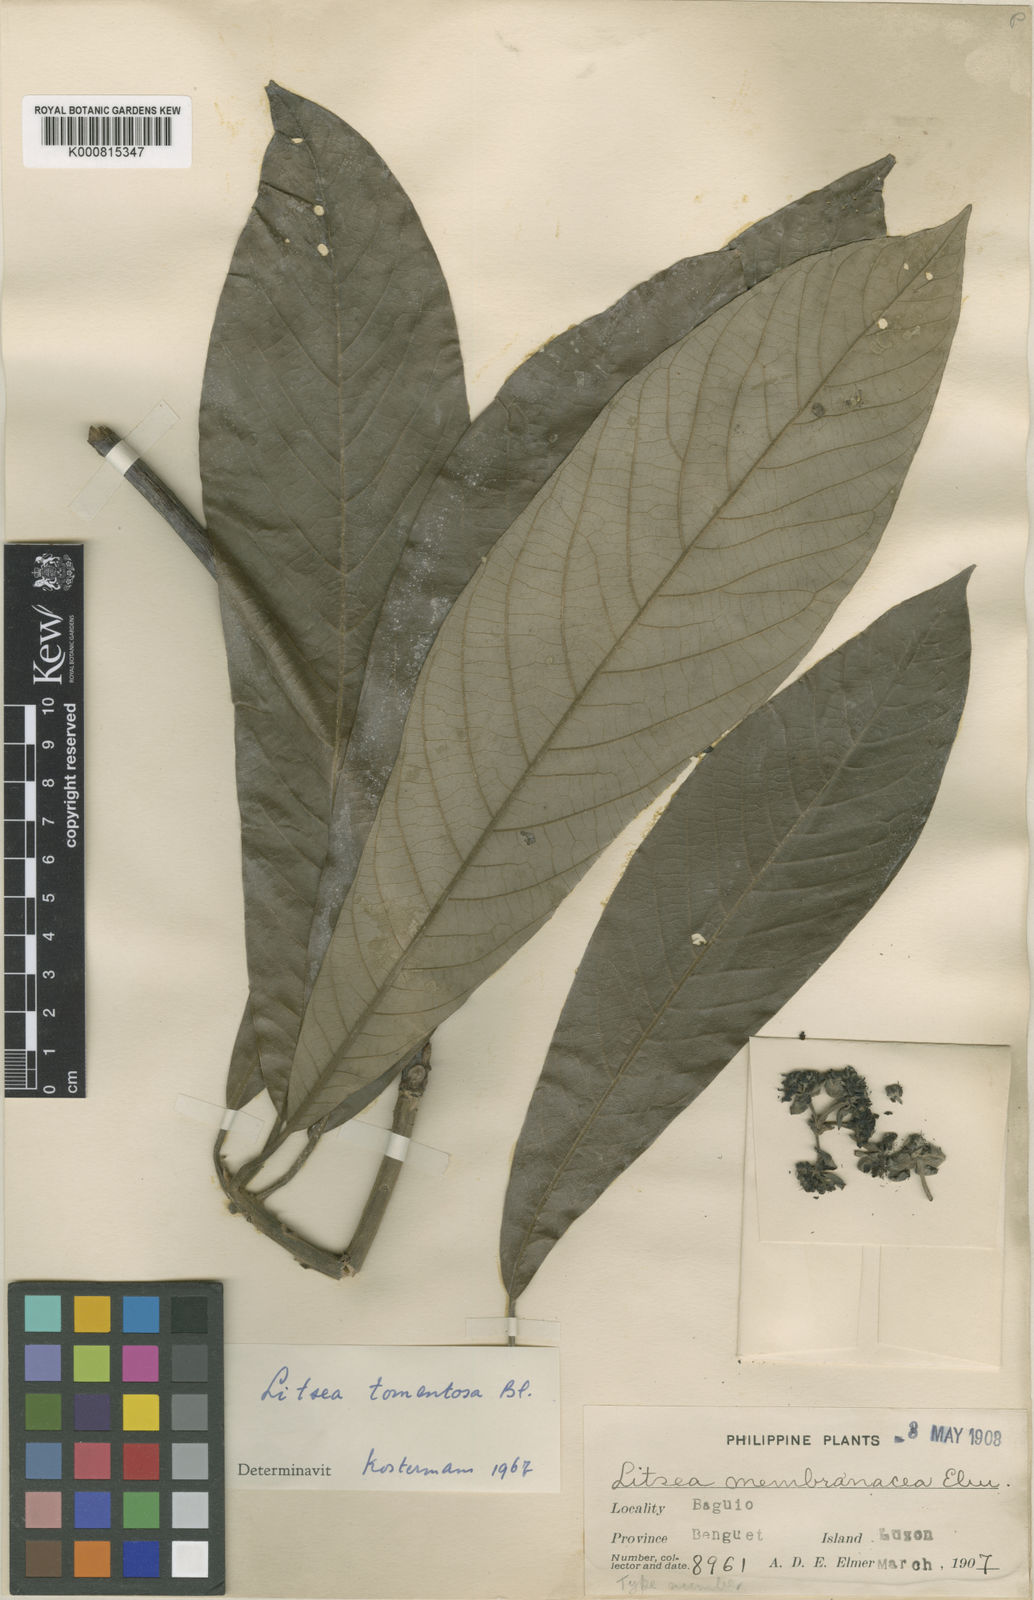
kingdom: Plantae
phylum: Tracheophyta
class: Magnoliopsida
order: Laurales
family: Lauraceae
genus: Litsea
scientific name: Litsea tomentosa
